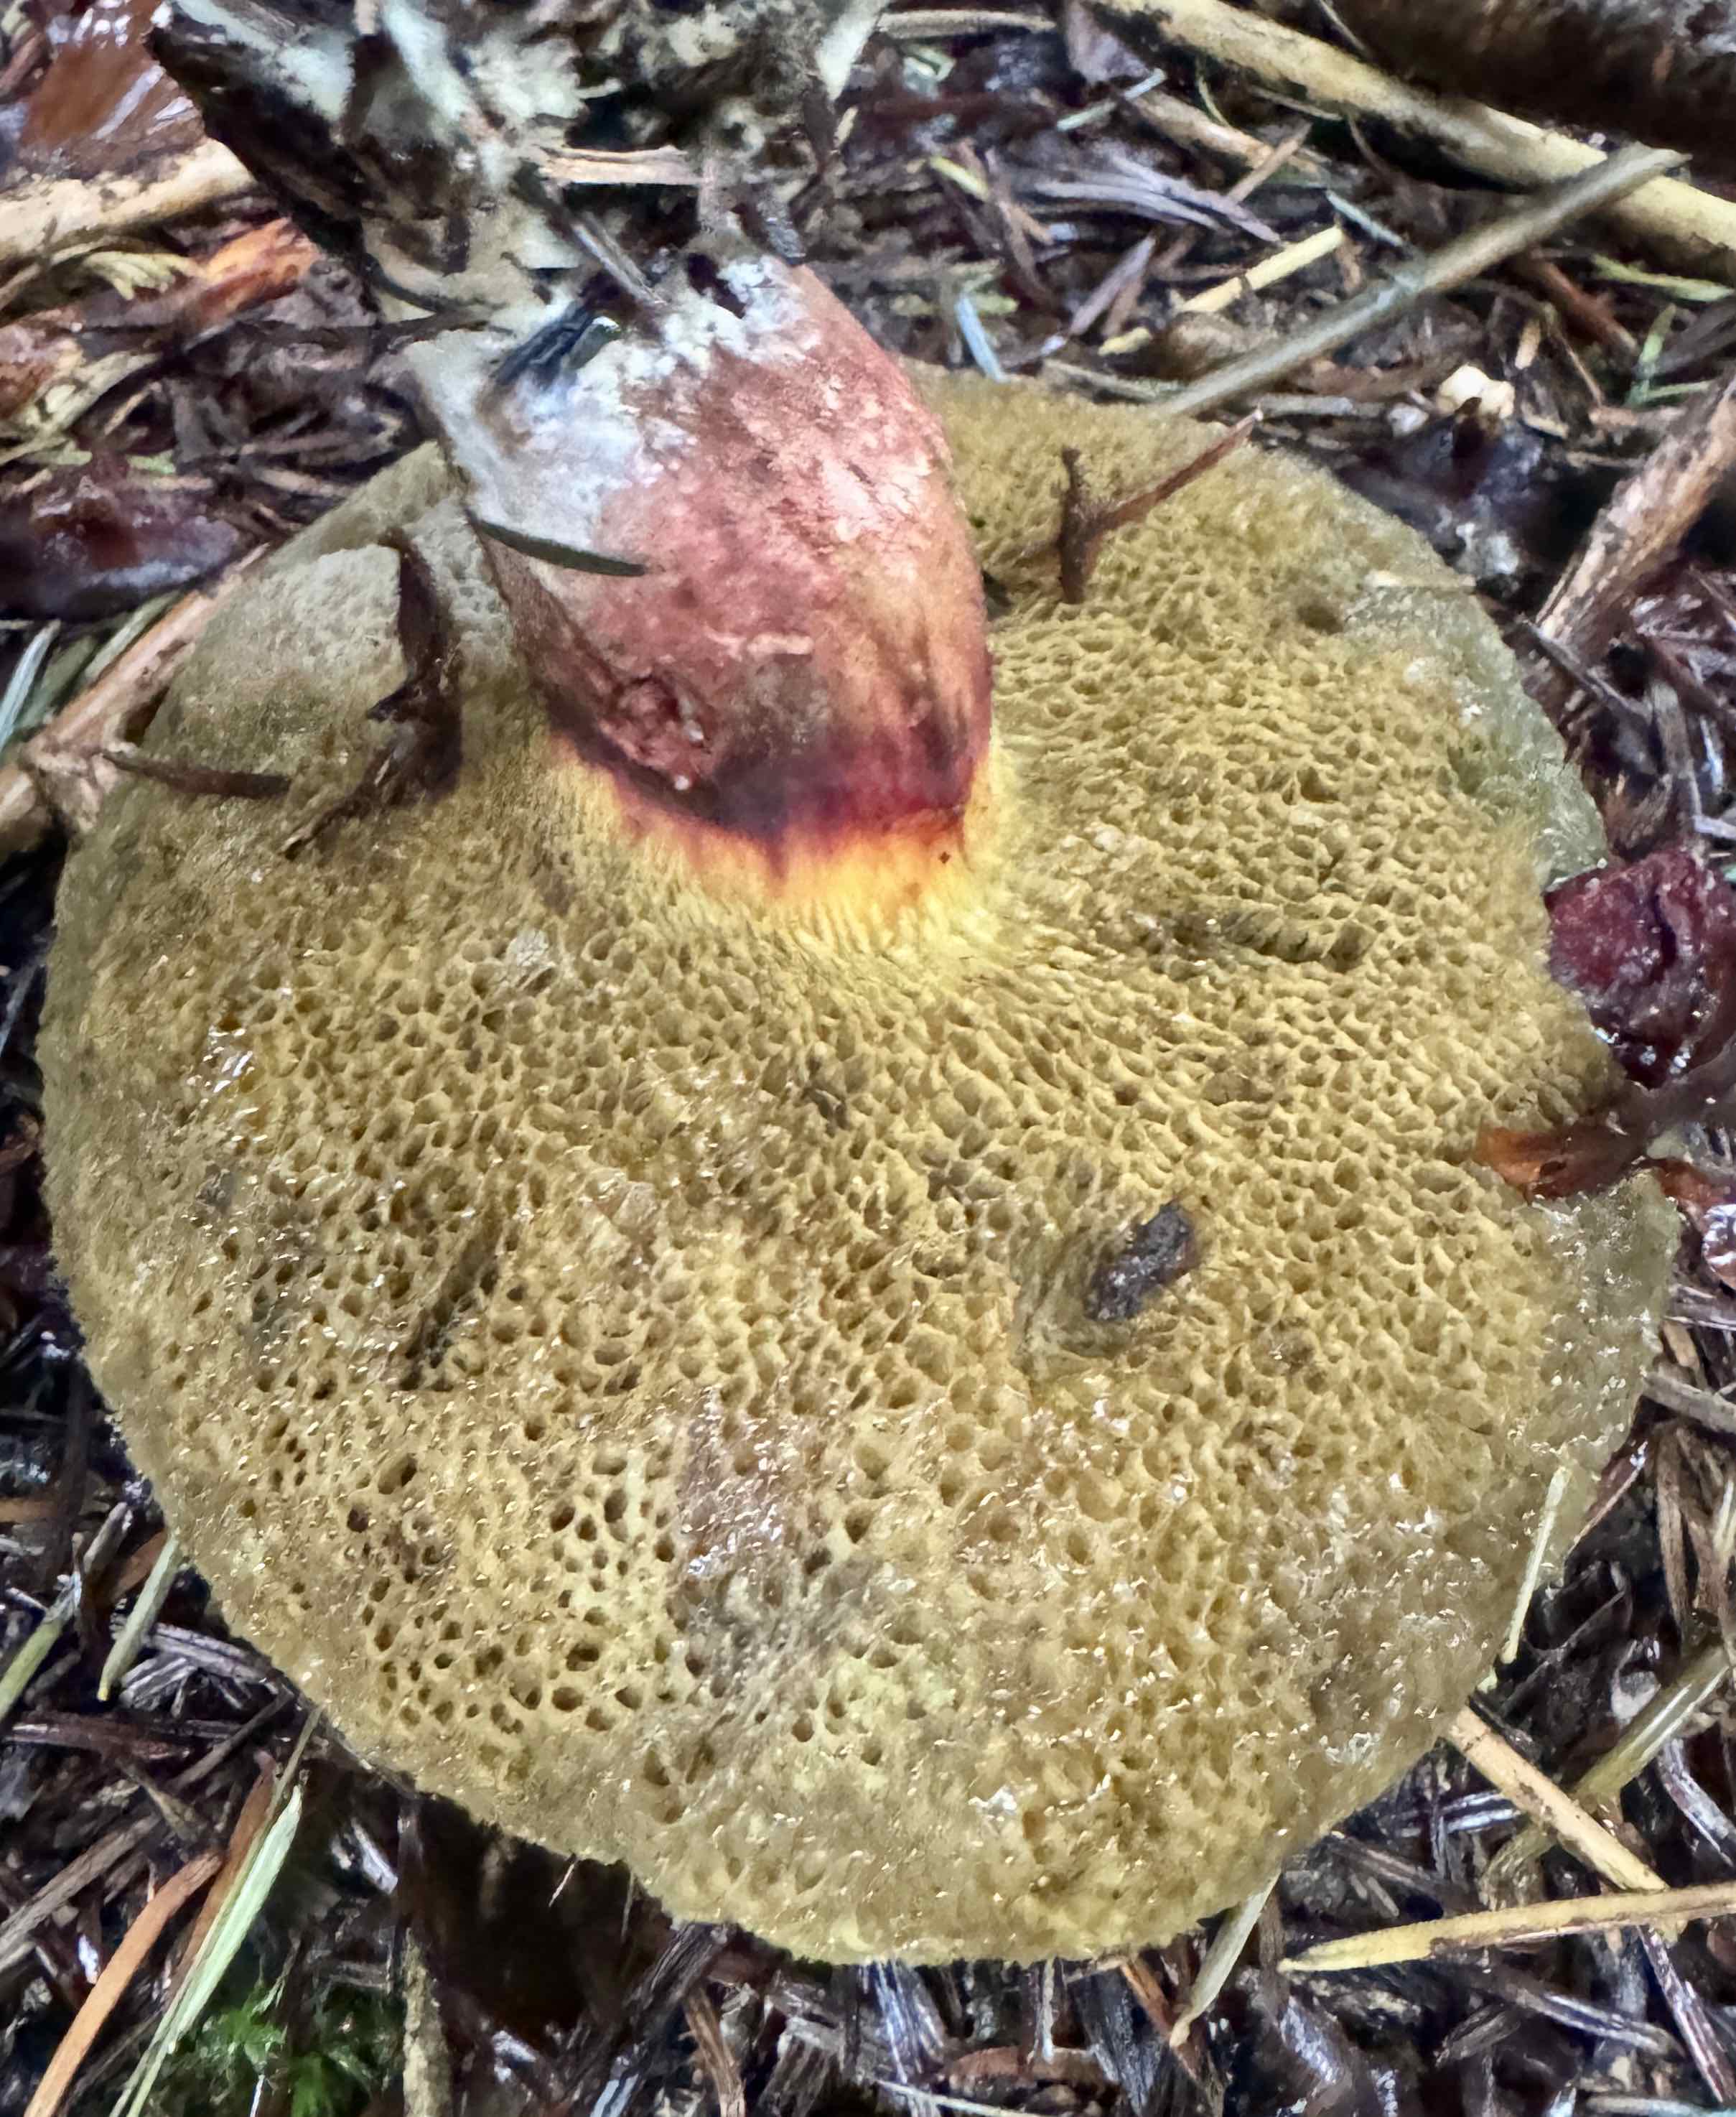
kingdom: Fungi
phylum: Basidiomycota
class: Agaricomycetes
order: Boletales
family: Boletaceae
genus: Xerocomellus
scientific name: Xerocomellus chrysenteron
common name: rødsprukken rørhat
